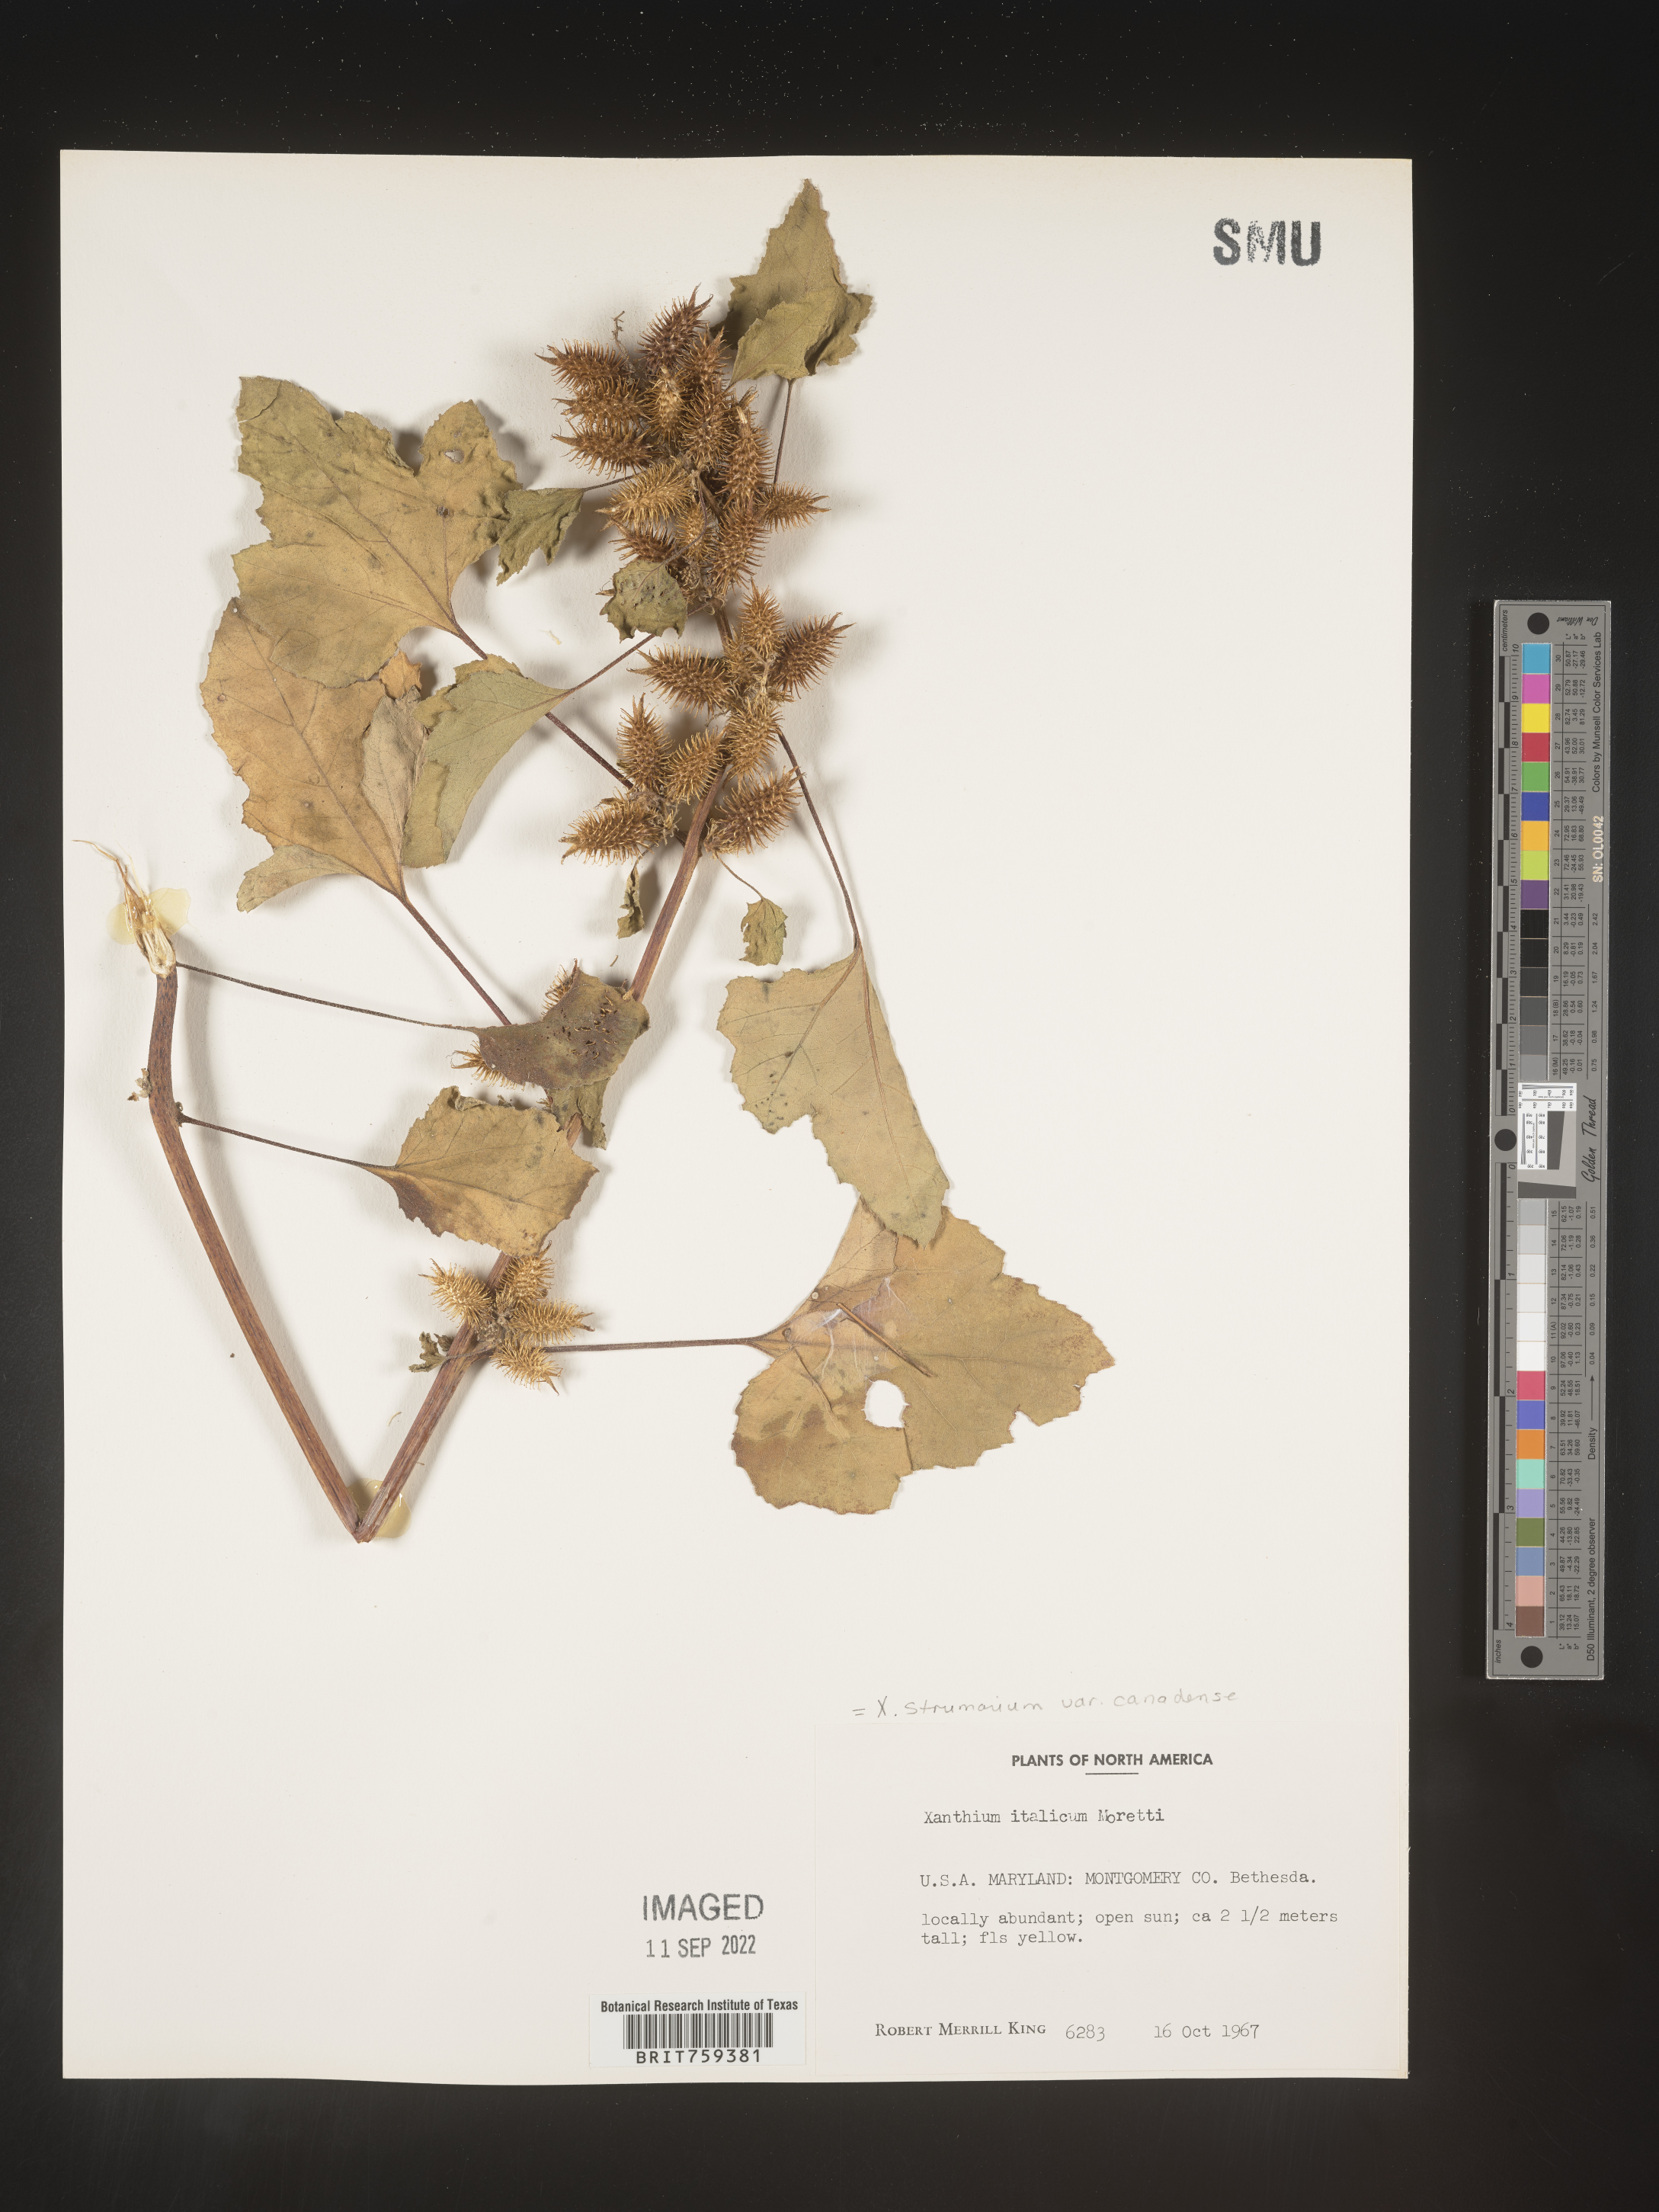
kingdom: Plantae
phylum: Tracheophyta
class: Magnoliopsida
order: Asterales
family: Asteraceae
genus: Xanthium
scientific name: Xanthium orientale
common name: Californian burr
